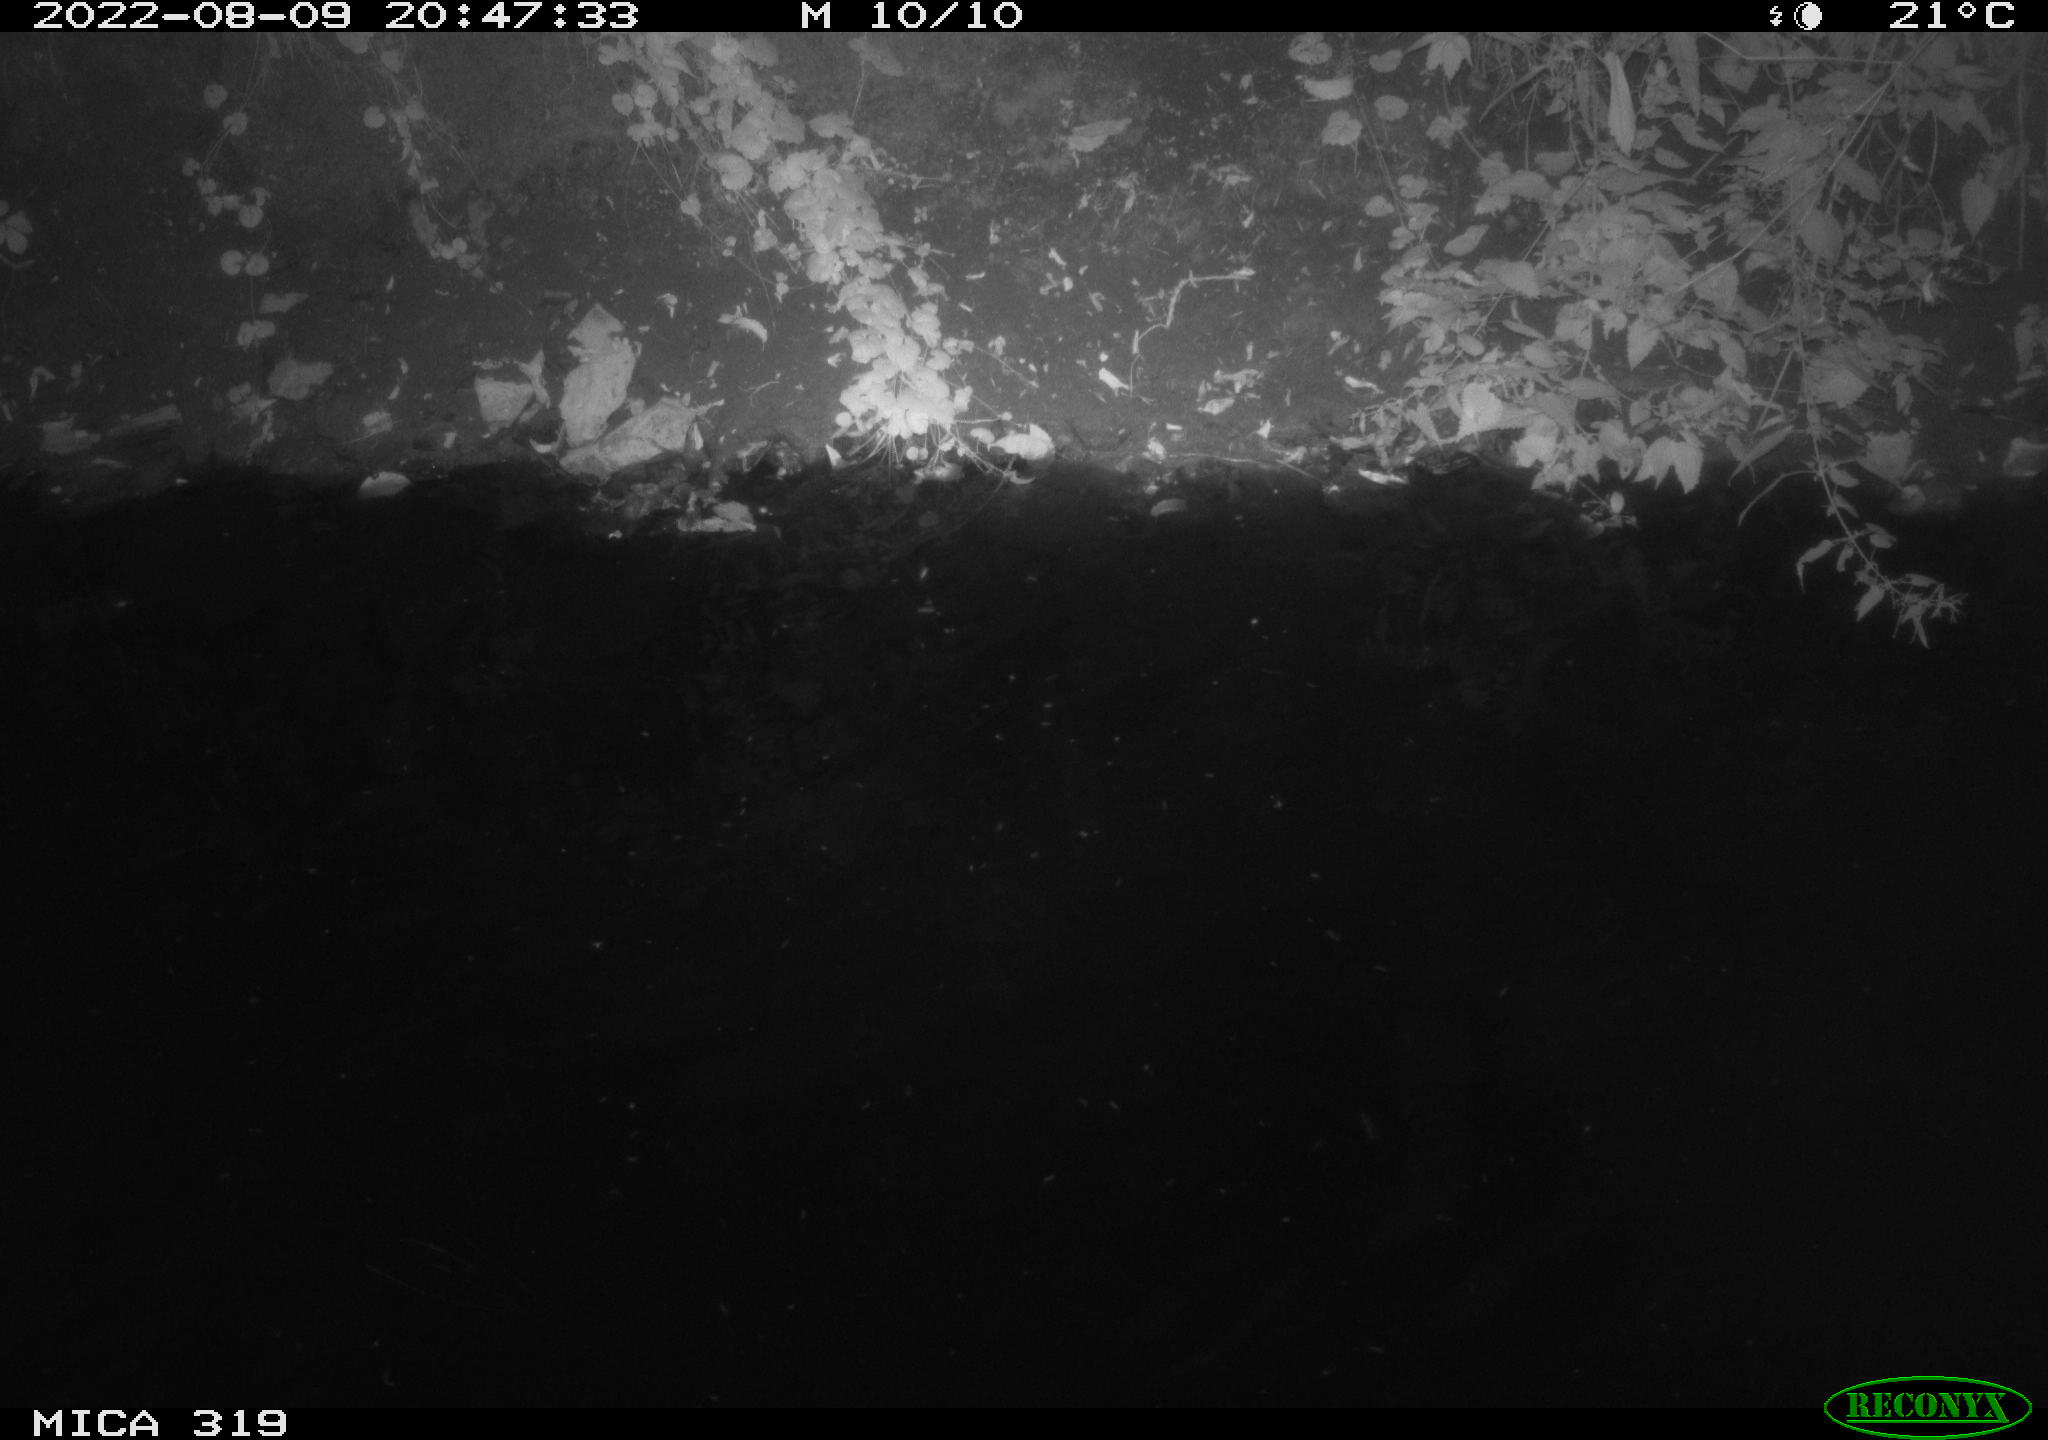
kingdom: Animalia
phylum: Chordata
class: Aves
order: Anseriformes
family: Anatidae
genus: Anas
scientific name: Anas
